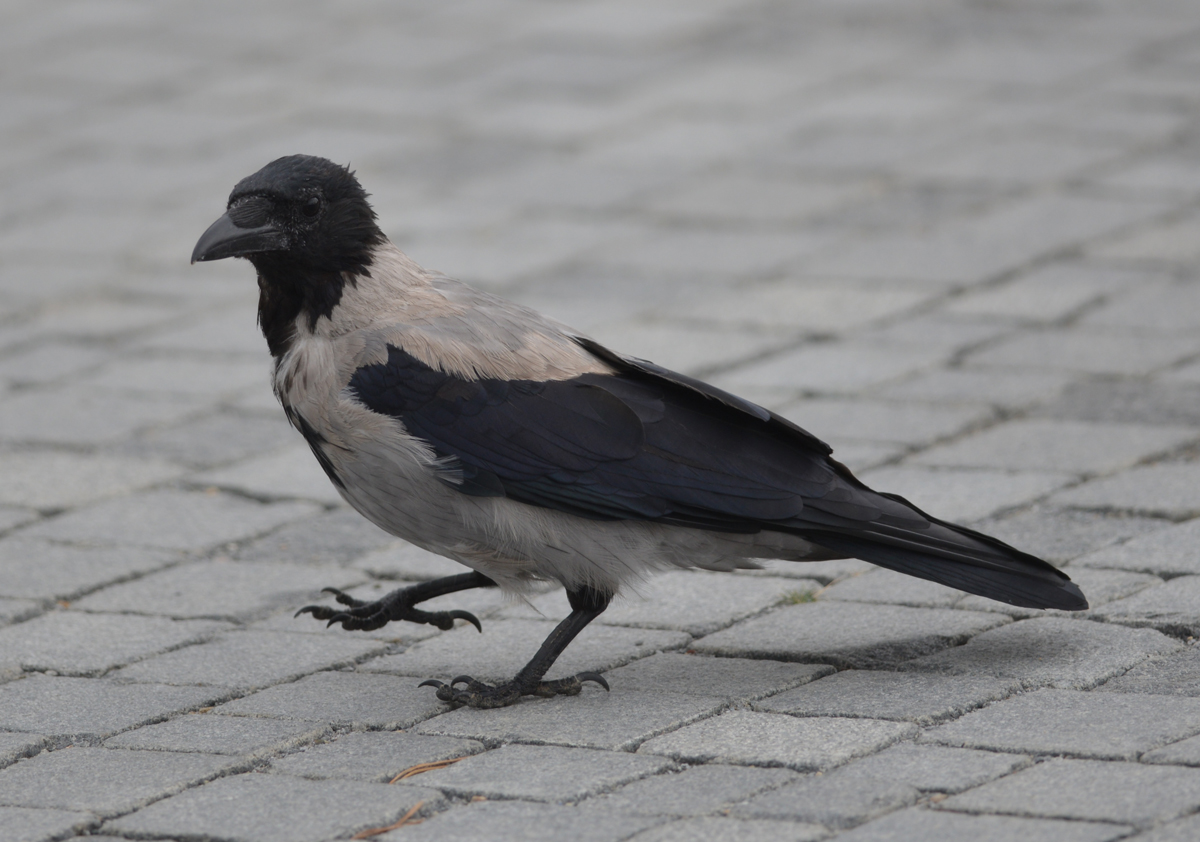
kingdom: Animalia
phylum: Chordata
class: Aves
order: Passeriformes
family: Corvidae
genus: Corvus
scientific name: Corvus cornix
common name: Hooded crow
